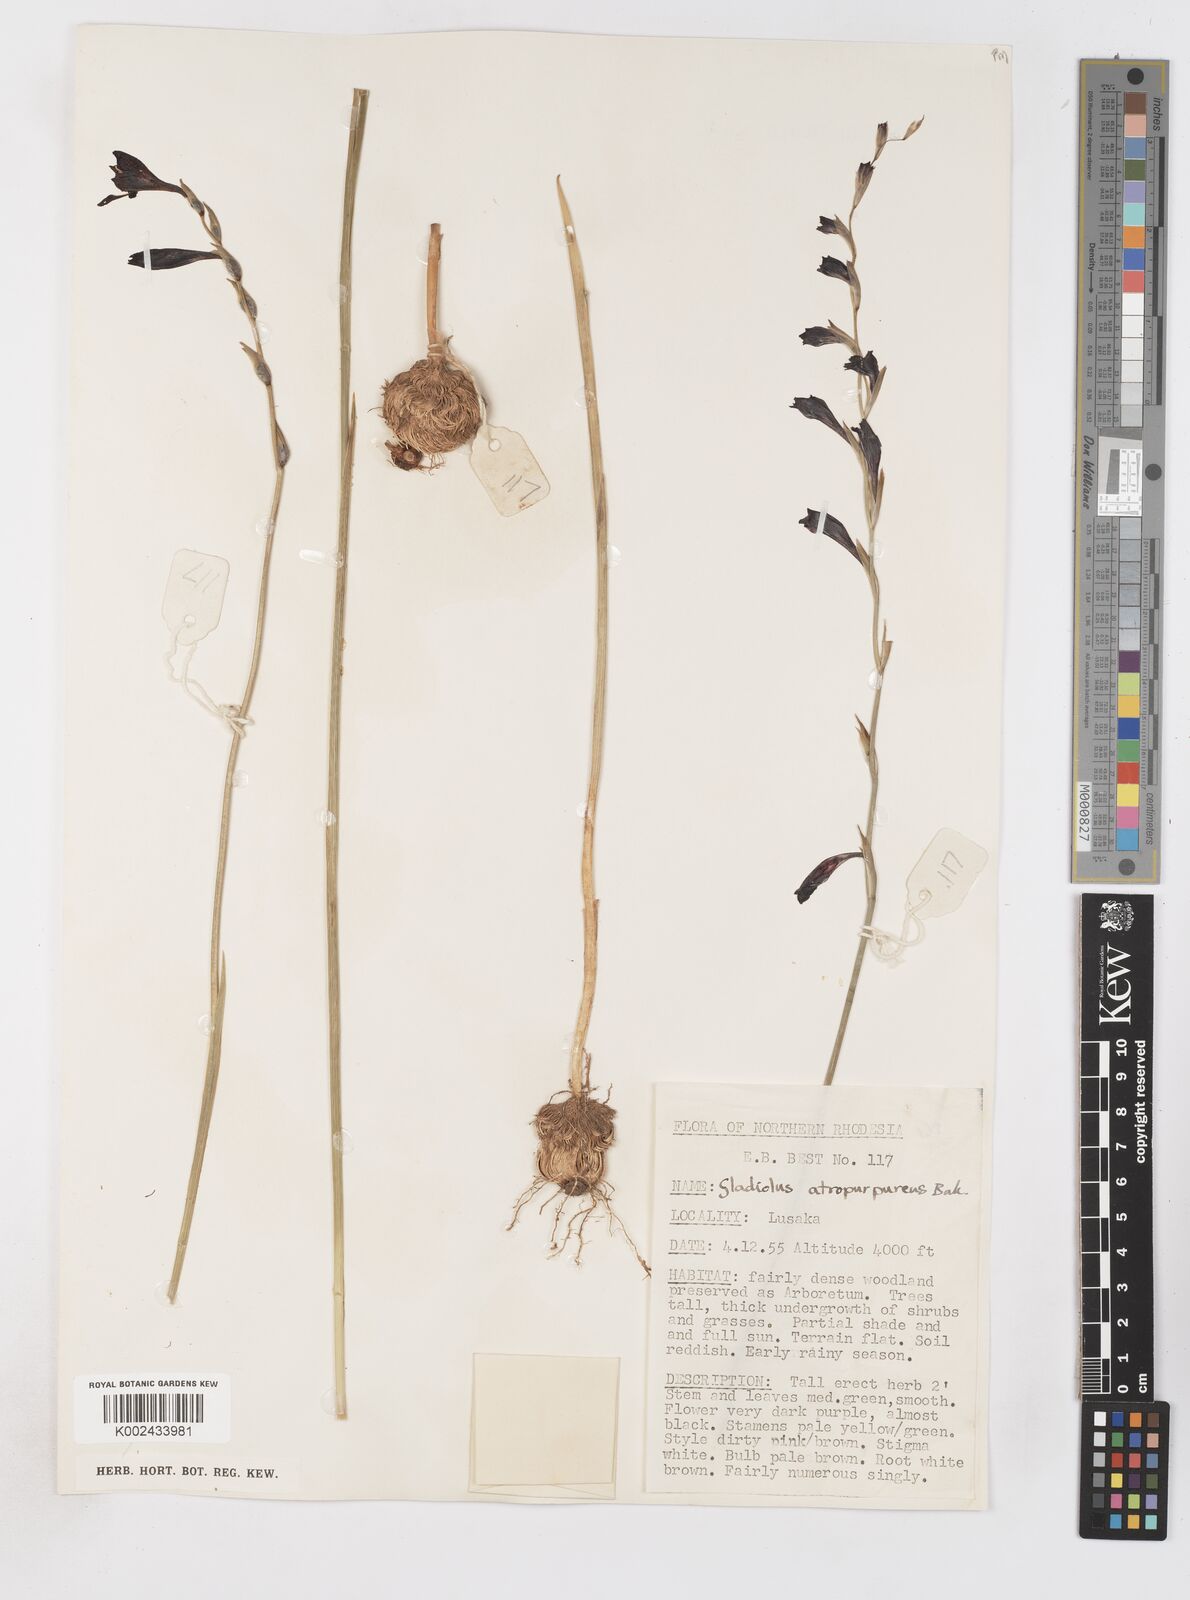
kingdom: Plantae
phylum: Tracheophyta
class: Liliopsida
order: Asparagales
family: Iridaceae
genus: Gladiolus
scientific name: Gladiolus atropurpureus
